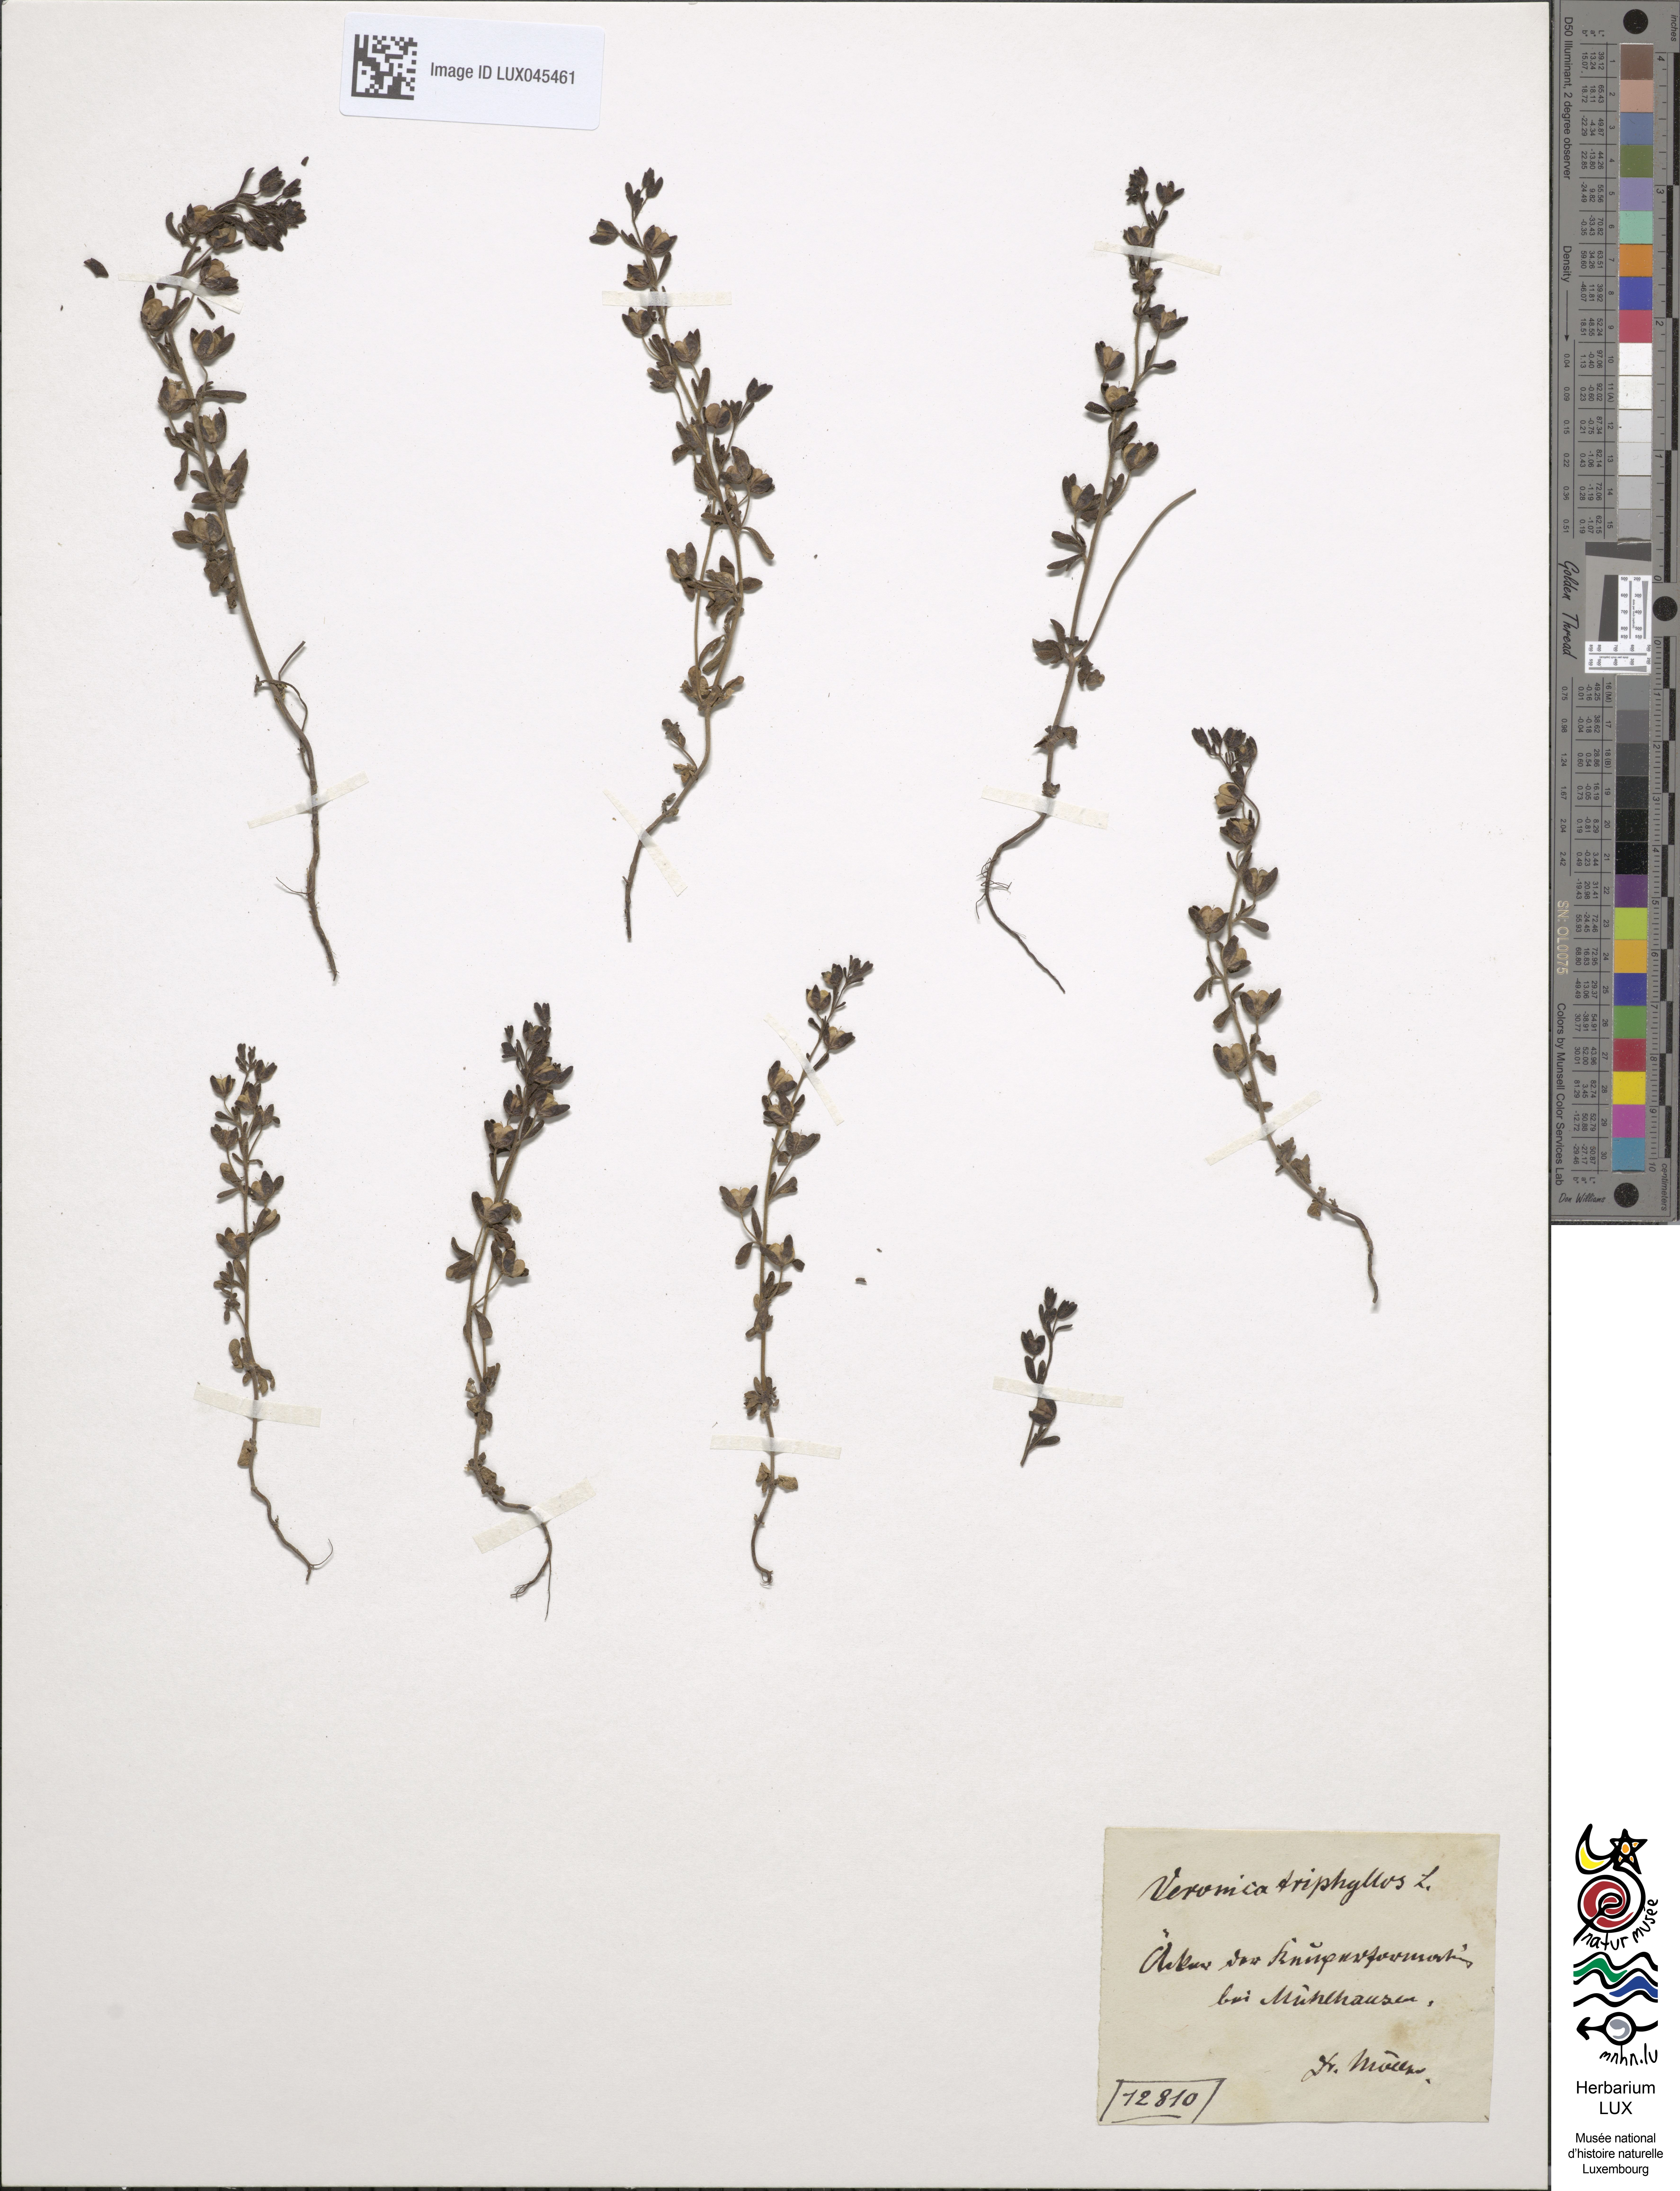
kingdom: Plantae
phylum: Tracheophyta
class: Magnoliopsida
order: Lamiales
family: Plantaginaceae
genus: Veronica
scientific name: Veronica triphyllos
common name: Fingered speedwell
